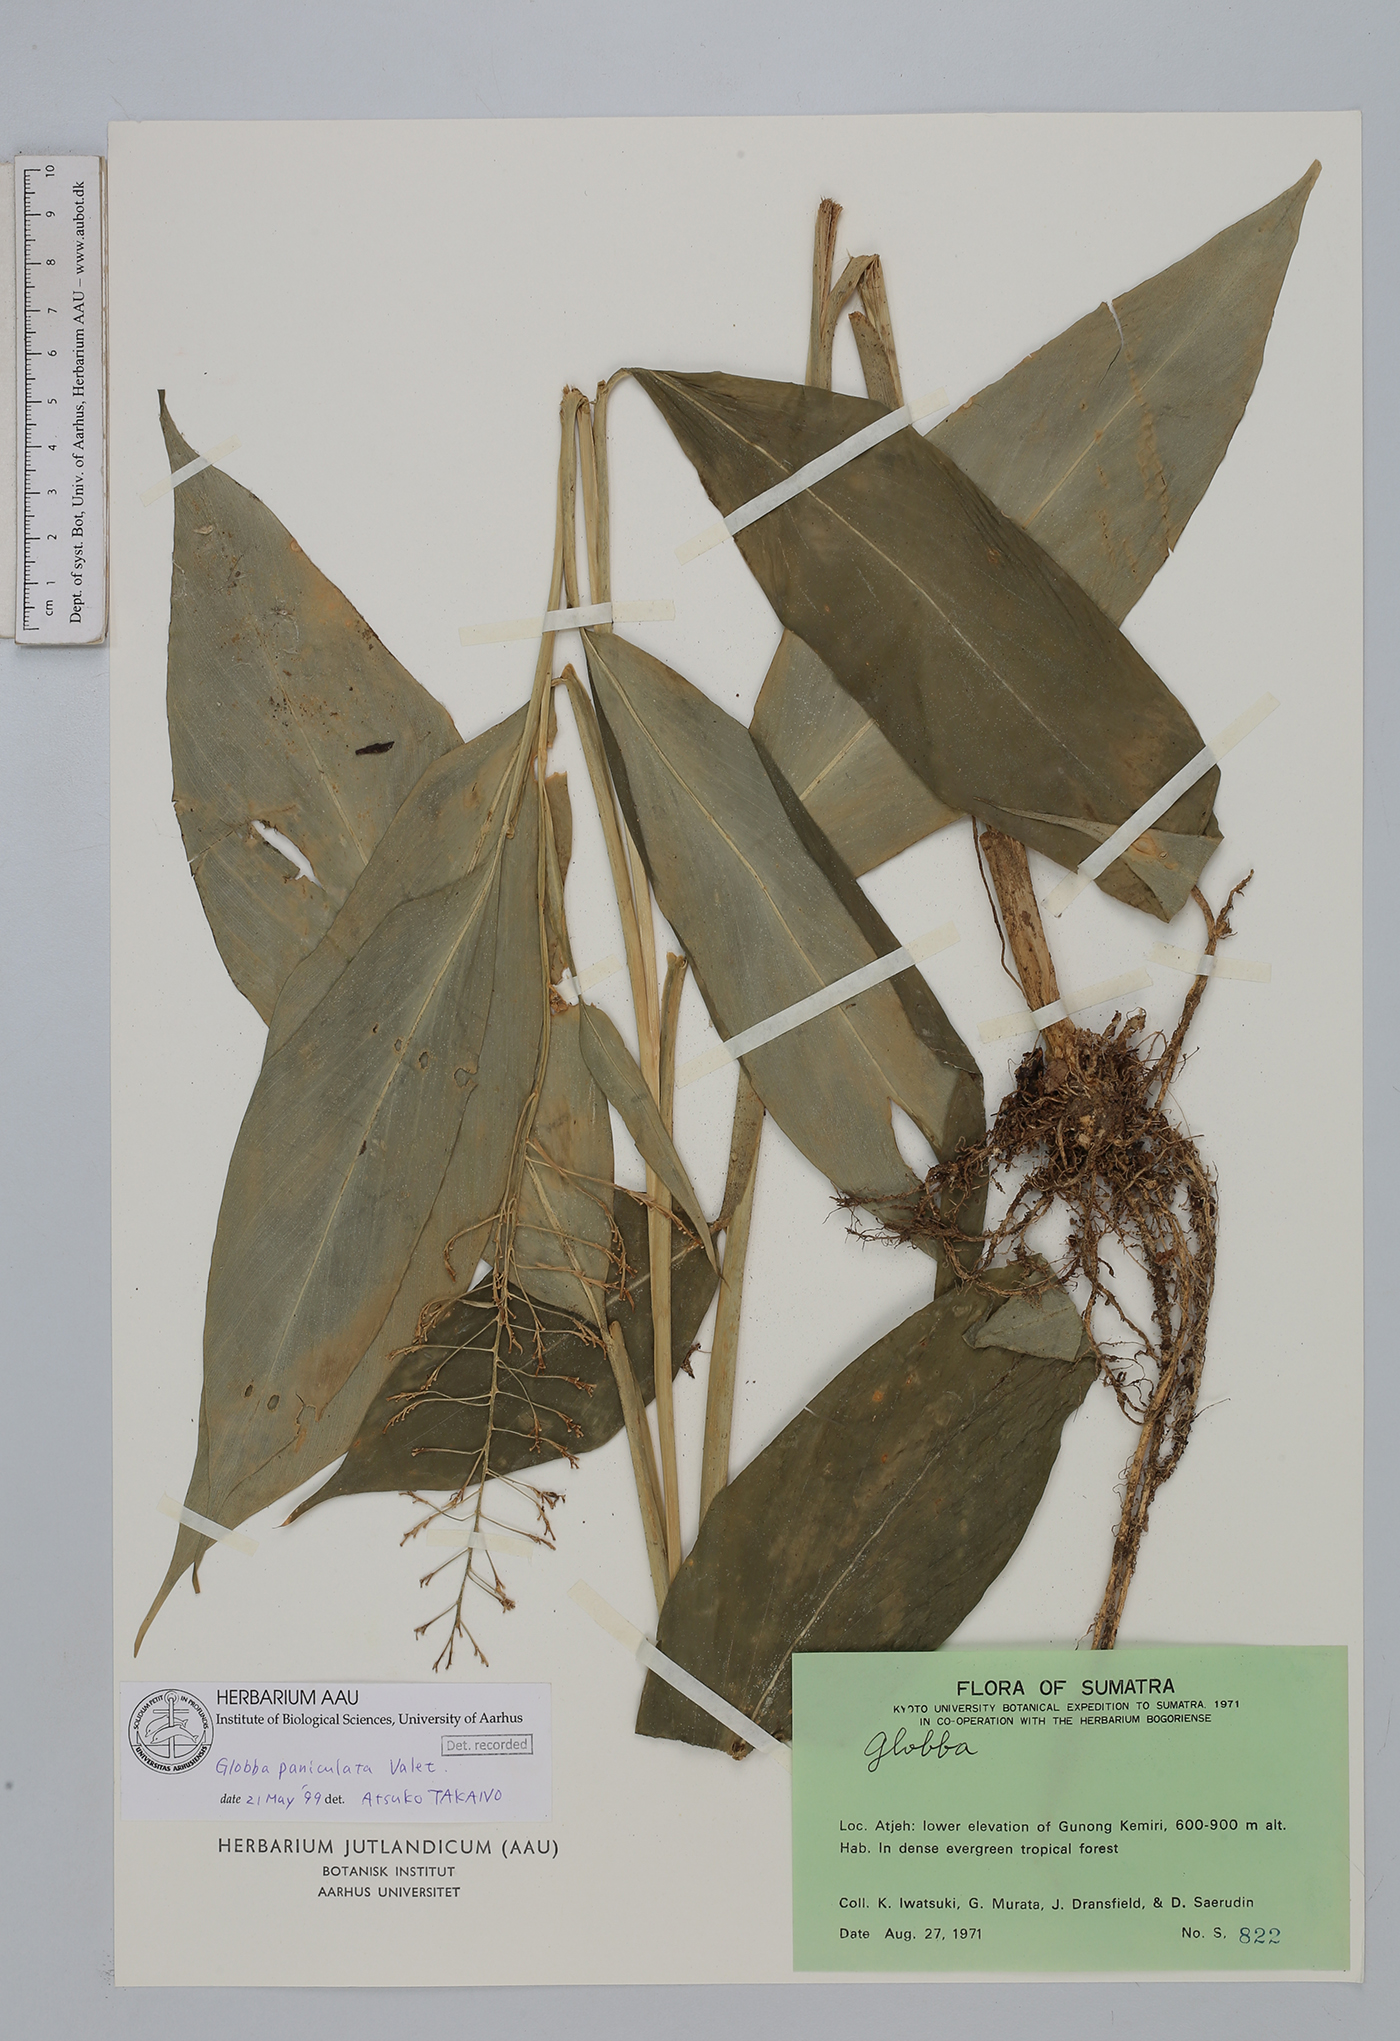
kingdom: Plantae
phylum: Tracheophyta
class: Liliopsida
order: Zingiberales
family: Zingiberaceae
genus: Globba
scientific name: Globba paniculata
